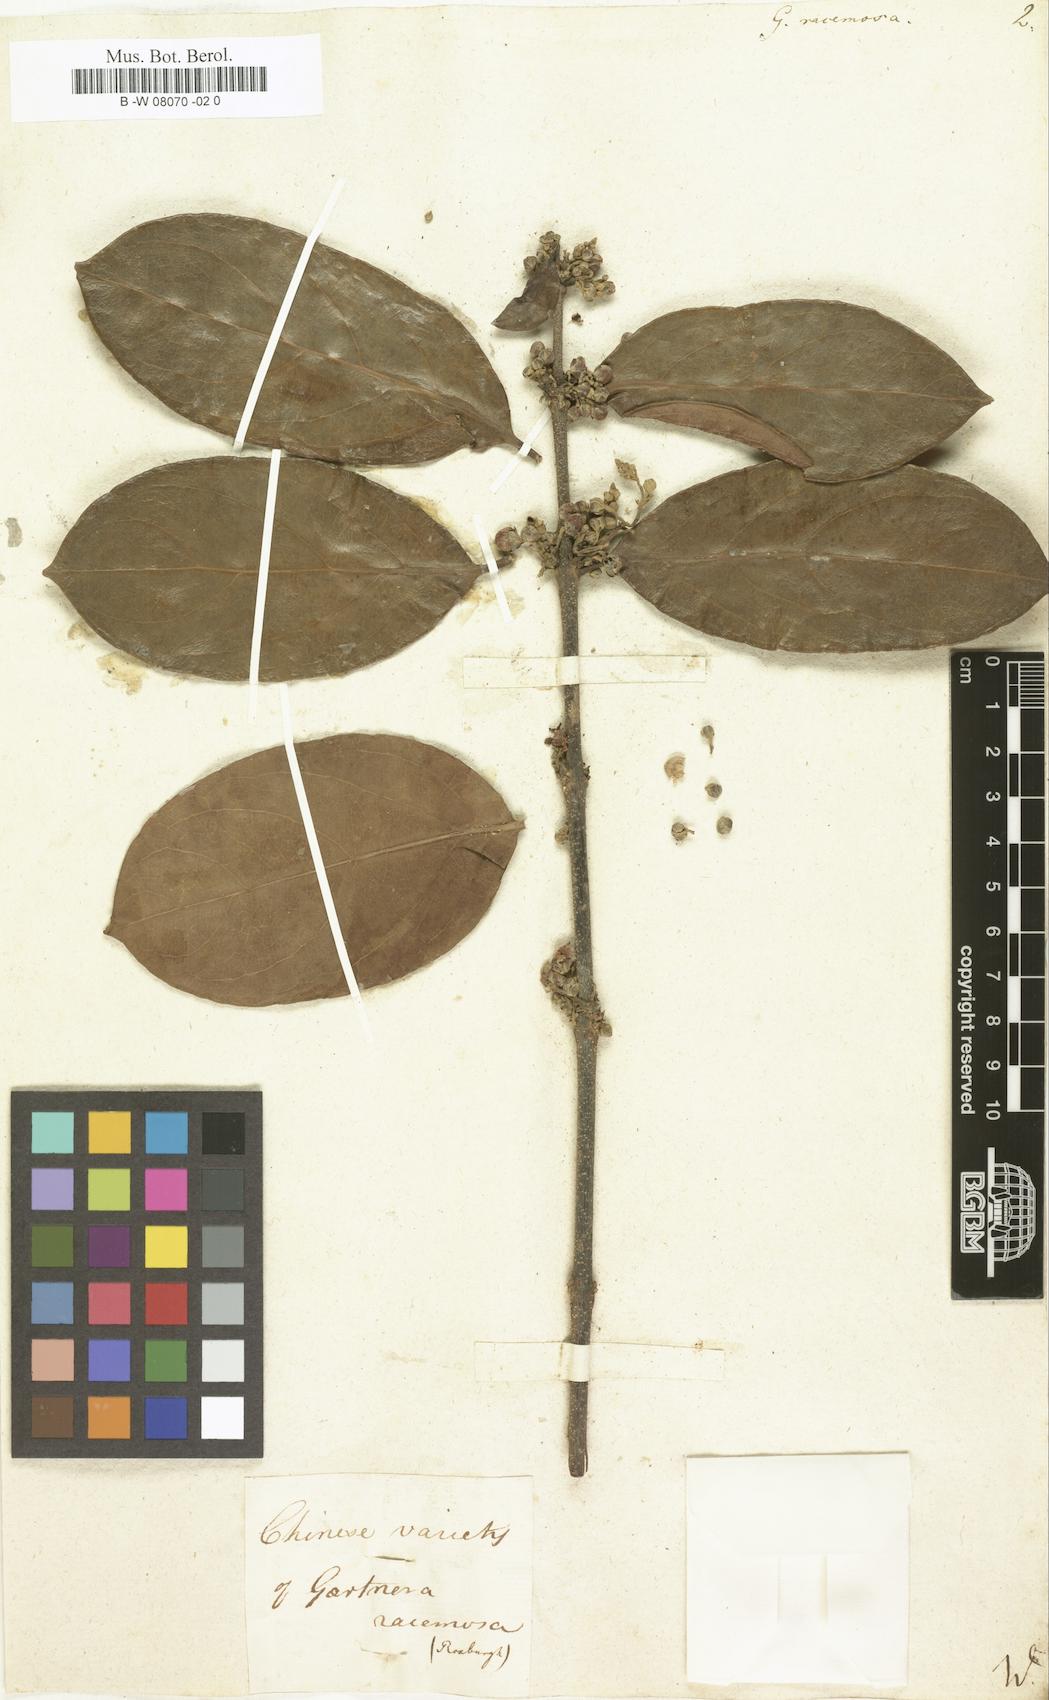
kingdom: Plantae
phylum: Tracheophyta
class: Magnoliopsida
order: Malpighiales
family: Malpighiaceae
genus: Hiptage
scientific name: Hiptage benghalensis
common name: Hiptage
